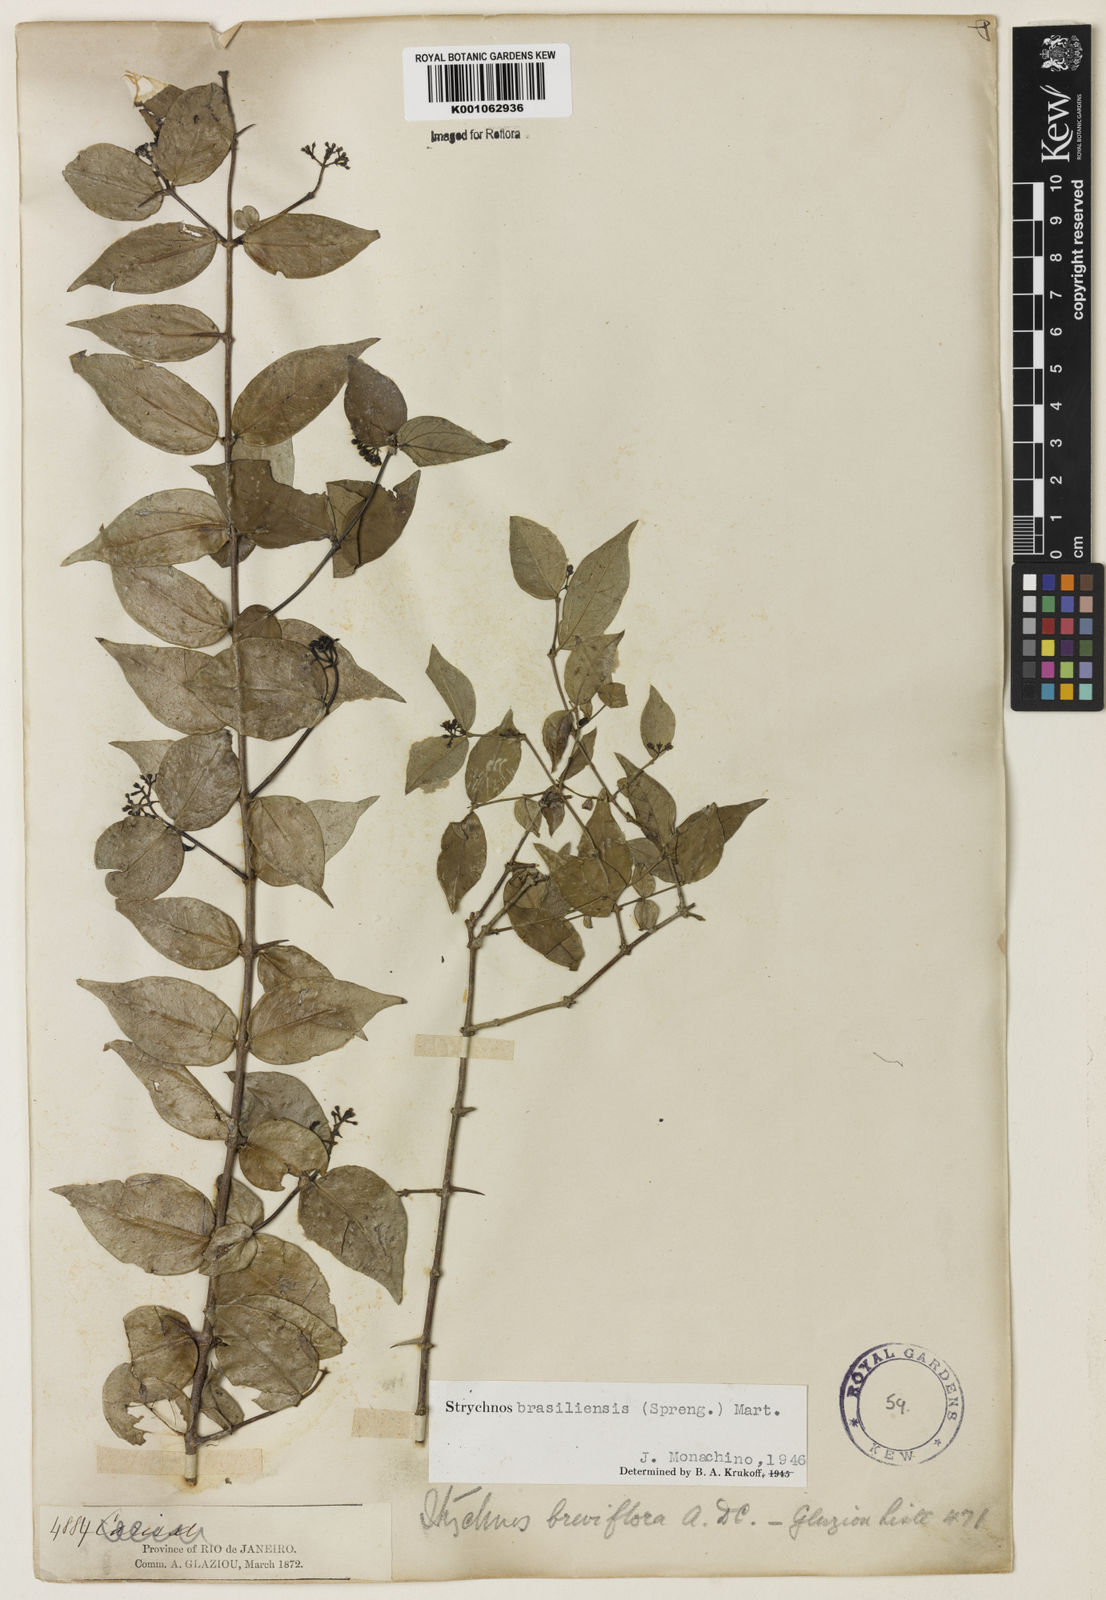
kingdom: Plantae
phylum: Tracheophyta
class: Magnoliopsida
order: Gentianales
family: Loganiaceae
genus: Strychnos
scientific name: Strychnos brasiliensis
